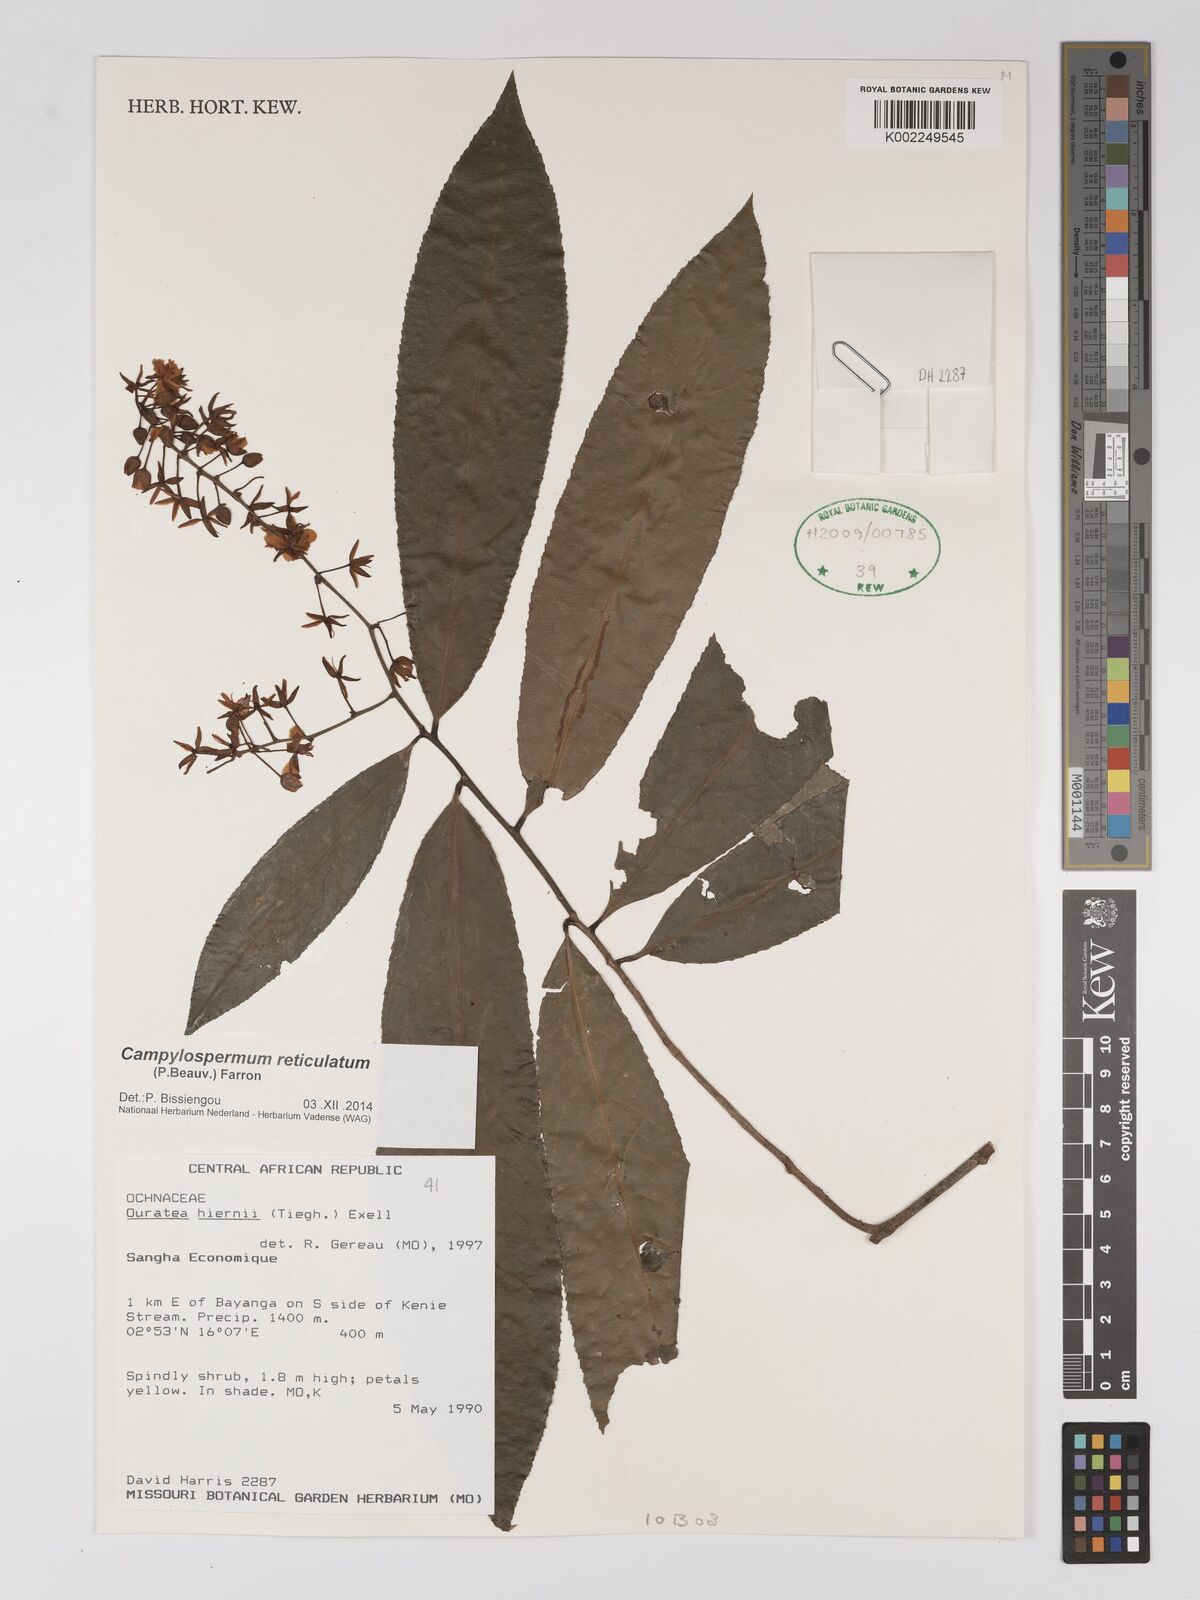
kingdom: Plantae
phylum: Tracheophyta
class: Magnoliopsida
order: Malpighiales
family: Ochnaceae
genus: Campylospermum
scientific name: Campylospermum
